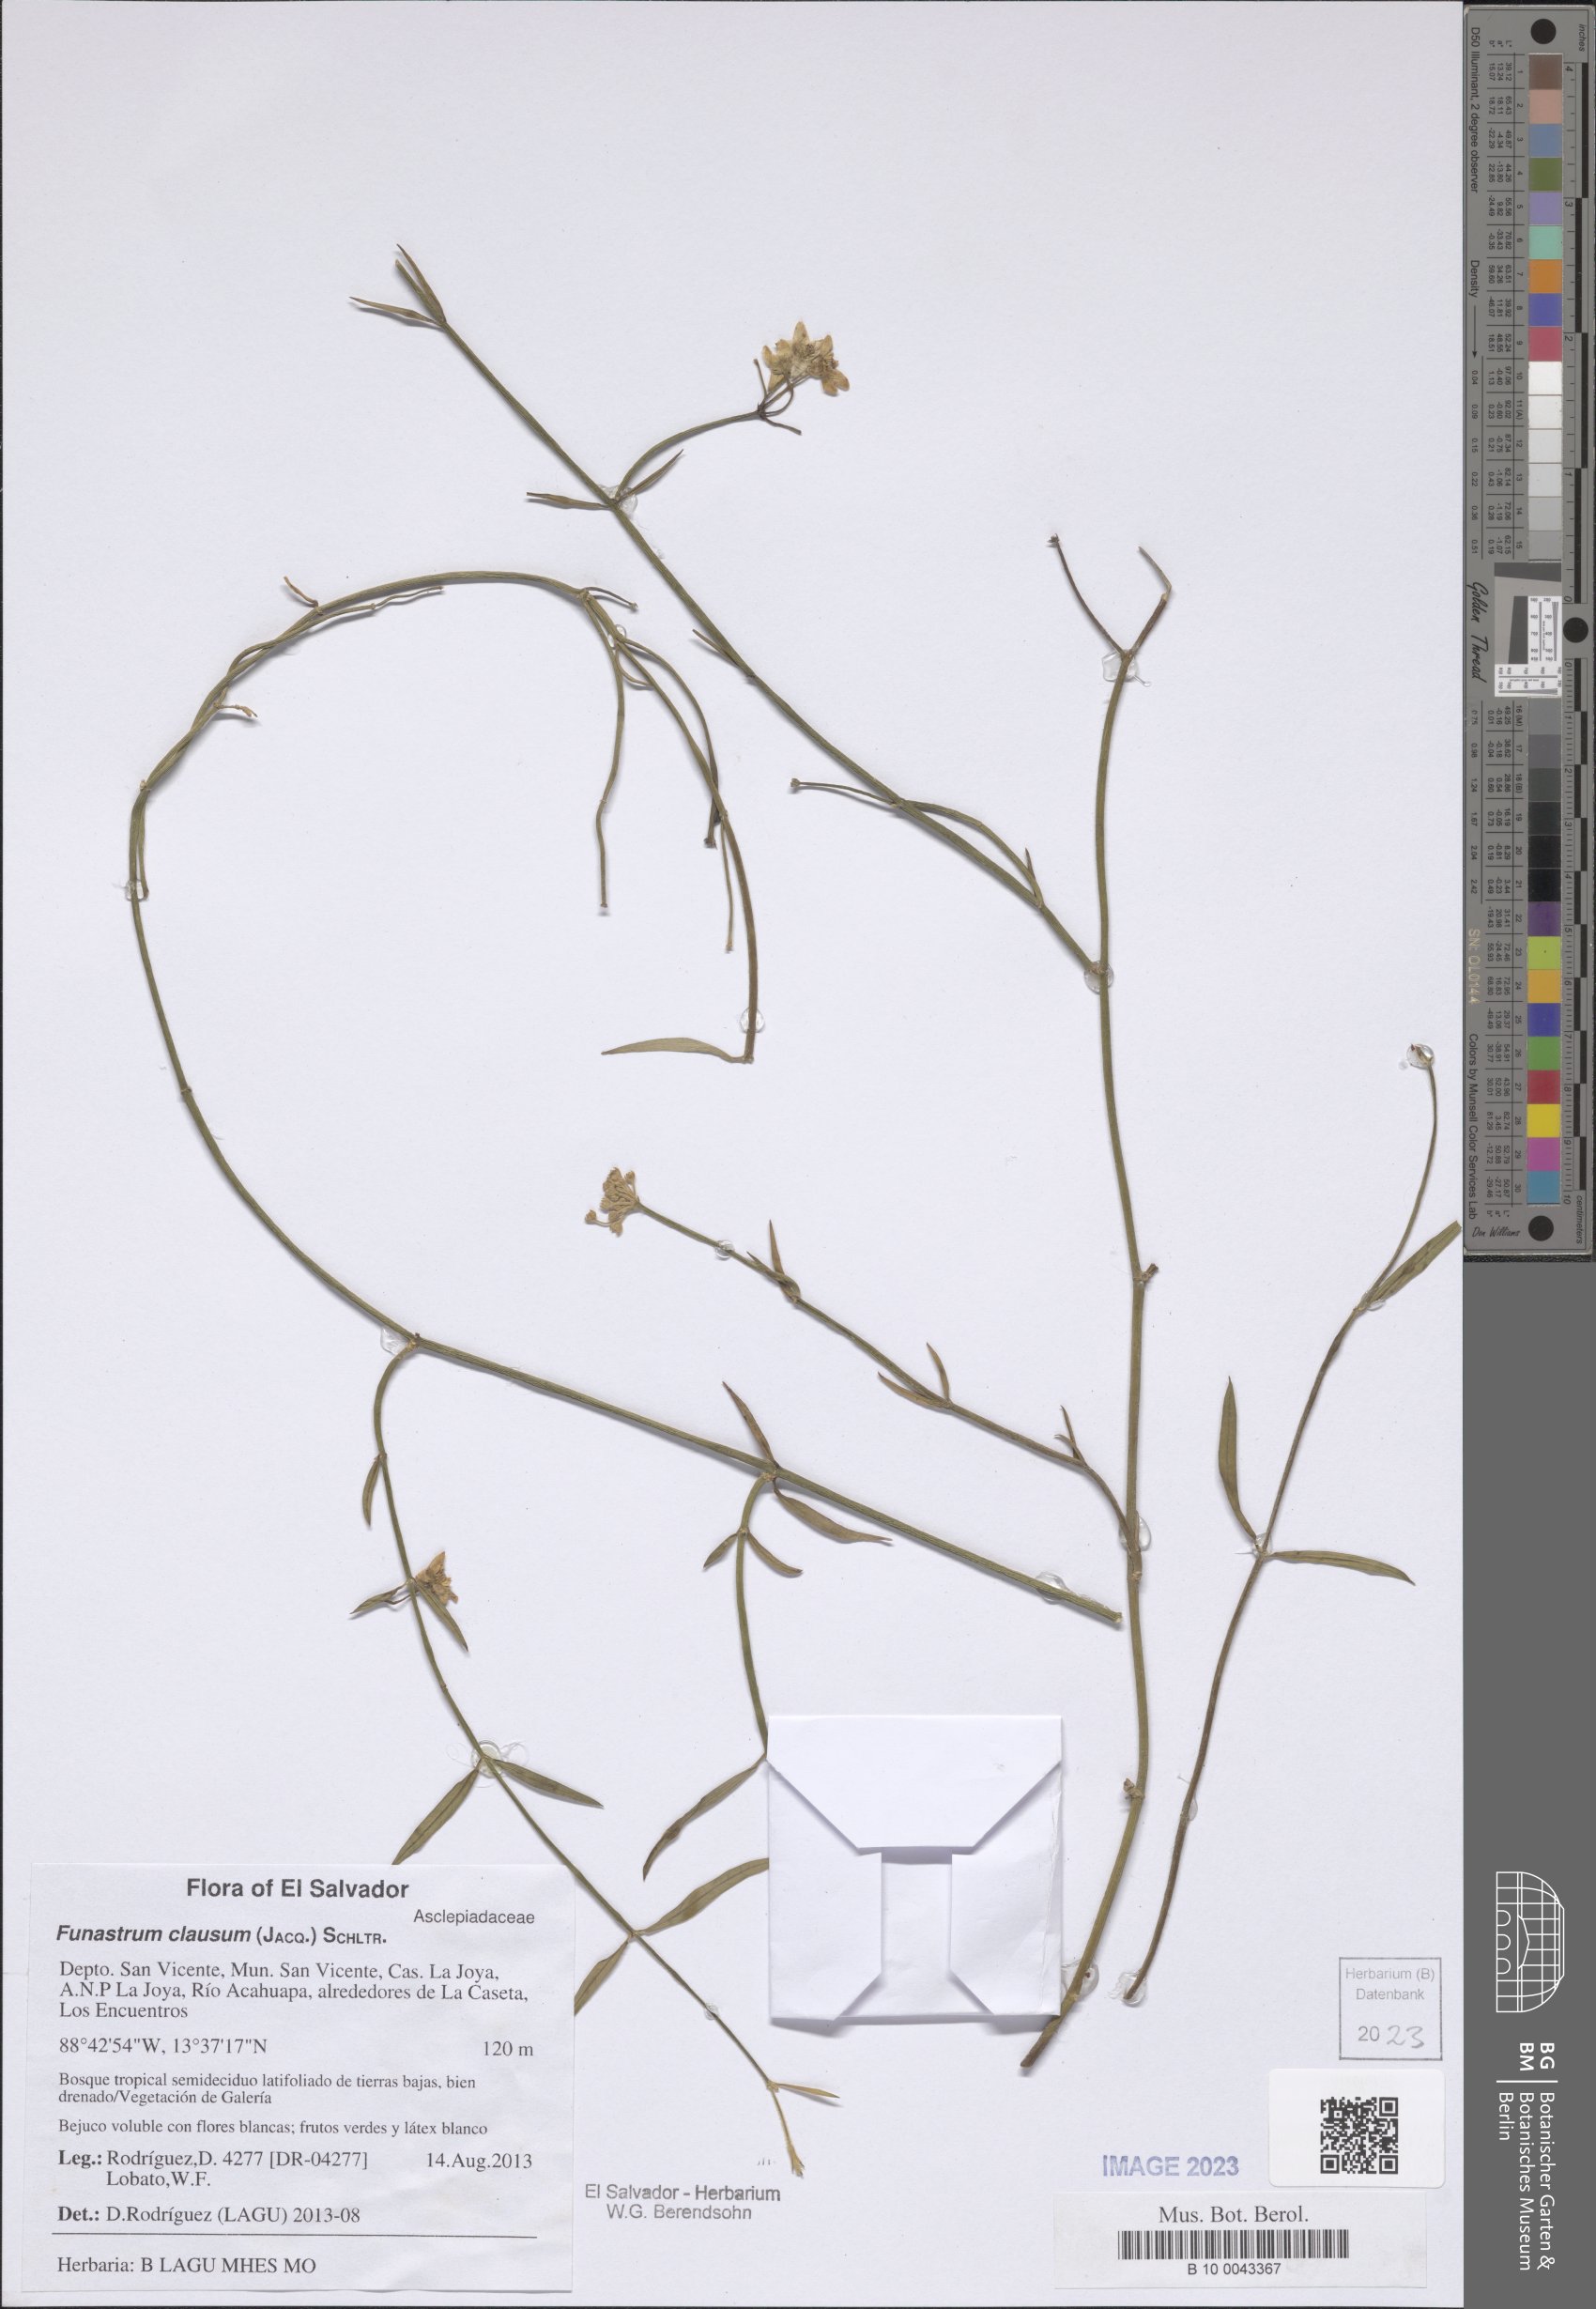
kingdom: Plantae
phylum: Tracheophyta
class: Magnoliopsida
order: Gentianales
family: Apocynaceae
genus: Funastrum
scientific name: Funastrum clausum
